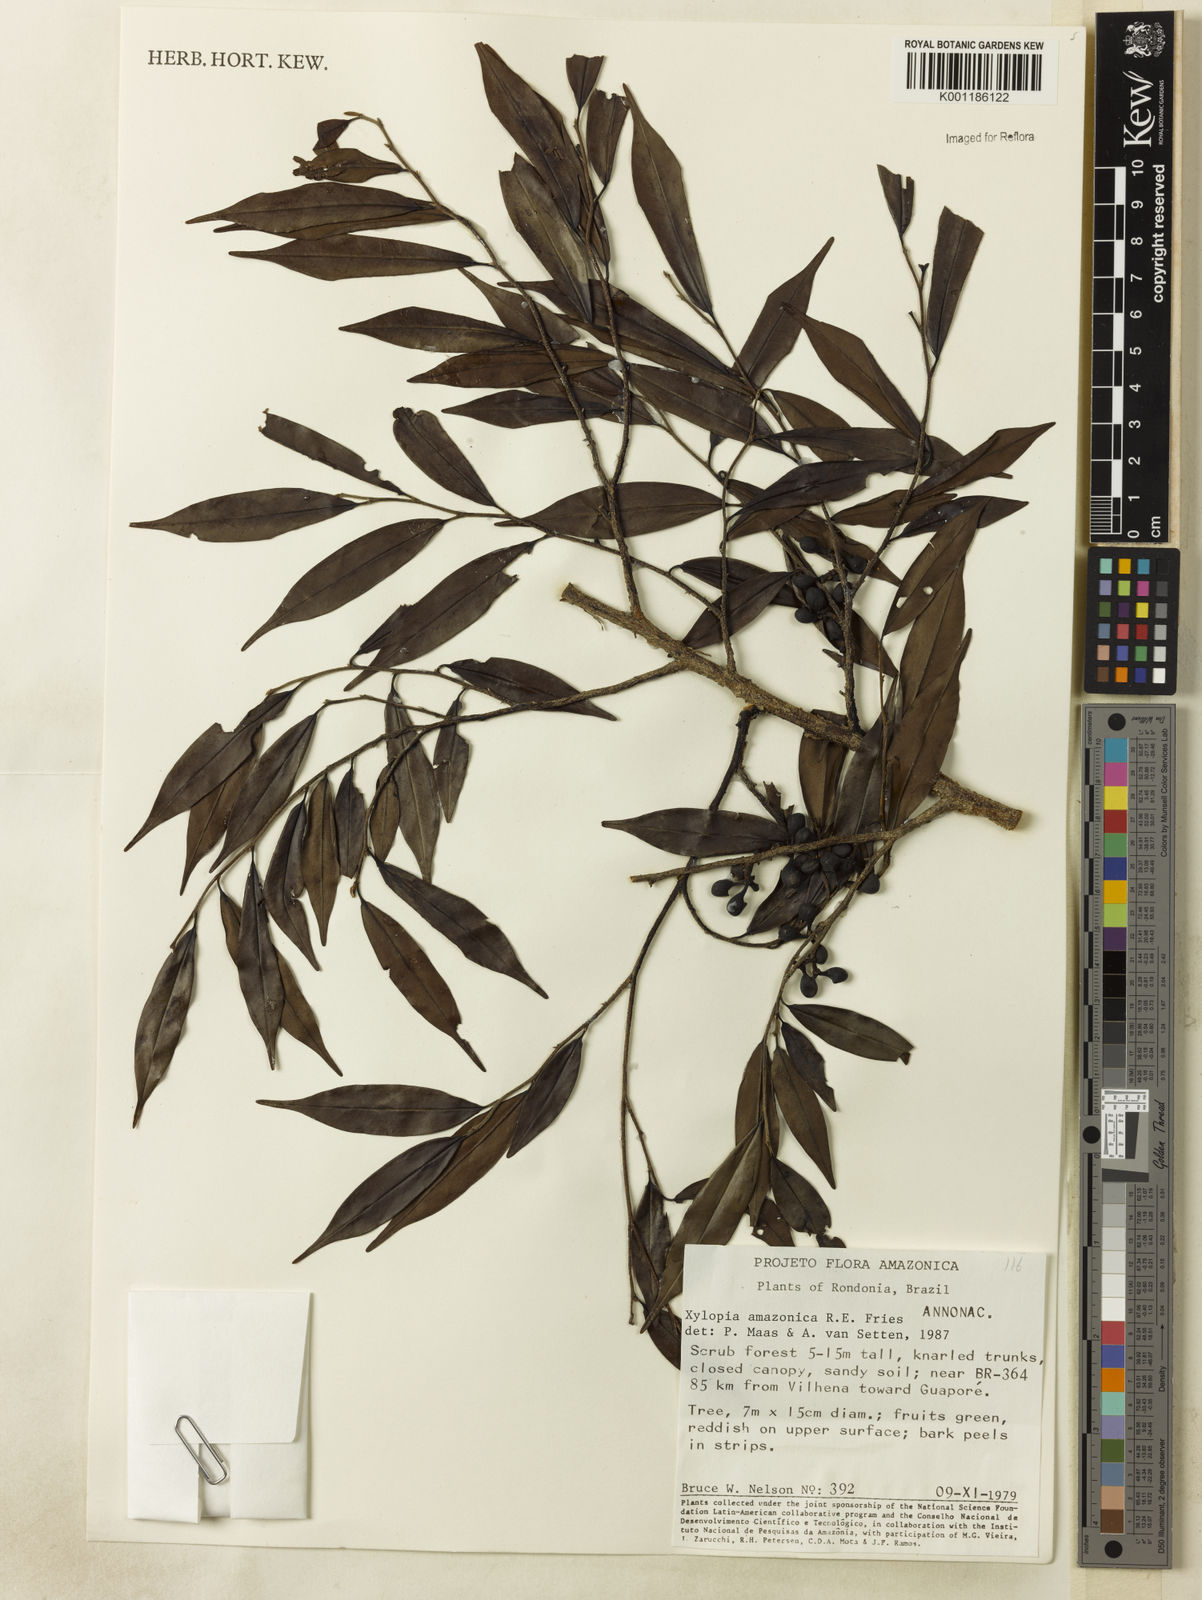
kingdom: Plantae
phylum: Tracheophyta
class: Magnoliopsida
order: Magnoliales
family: Annonaceae
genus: Xylopia
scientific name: Xylopia amazonica
